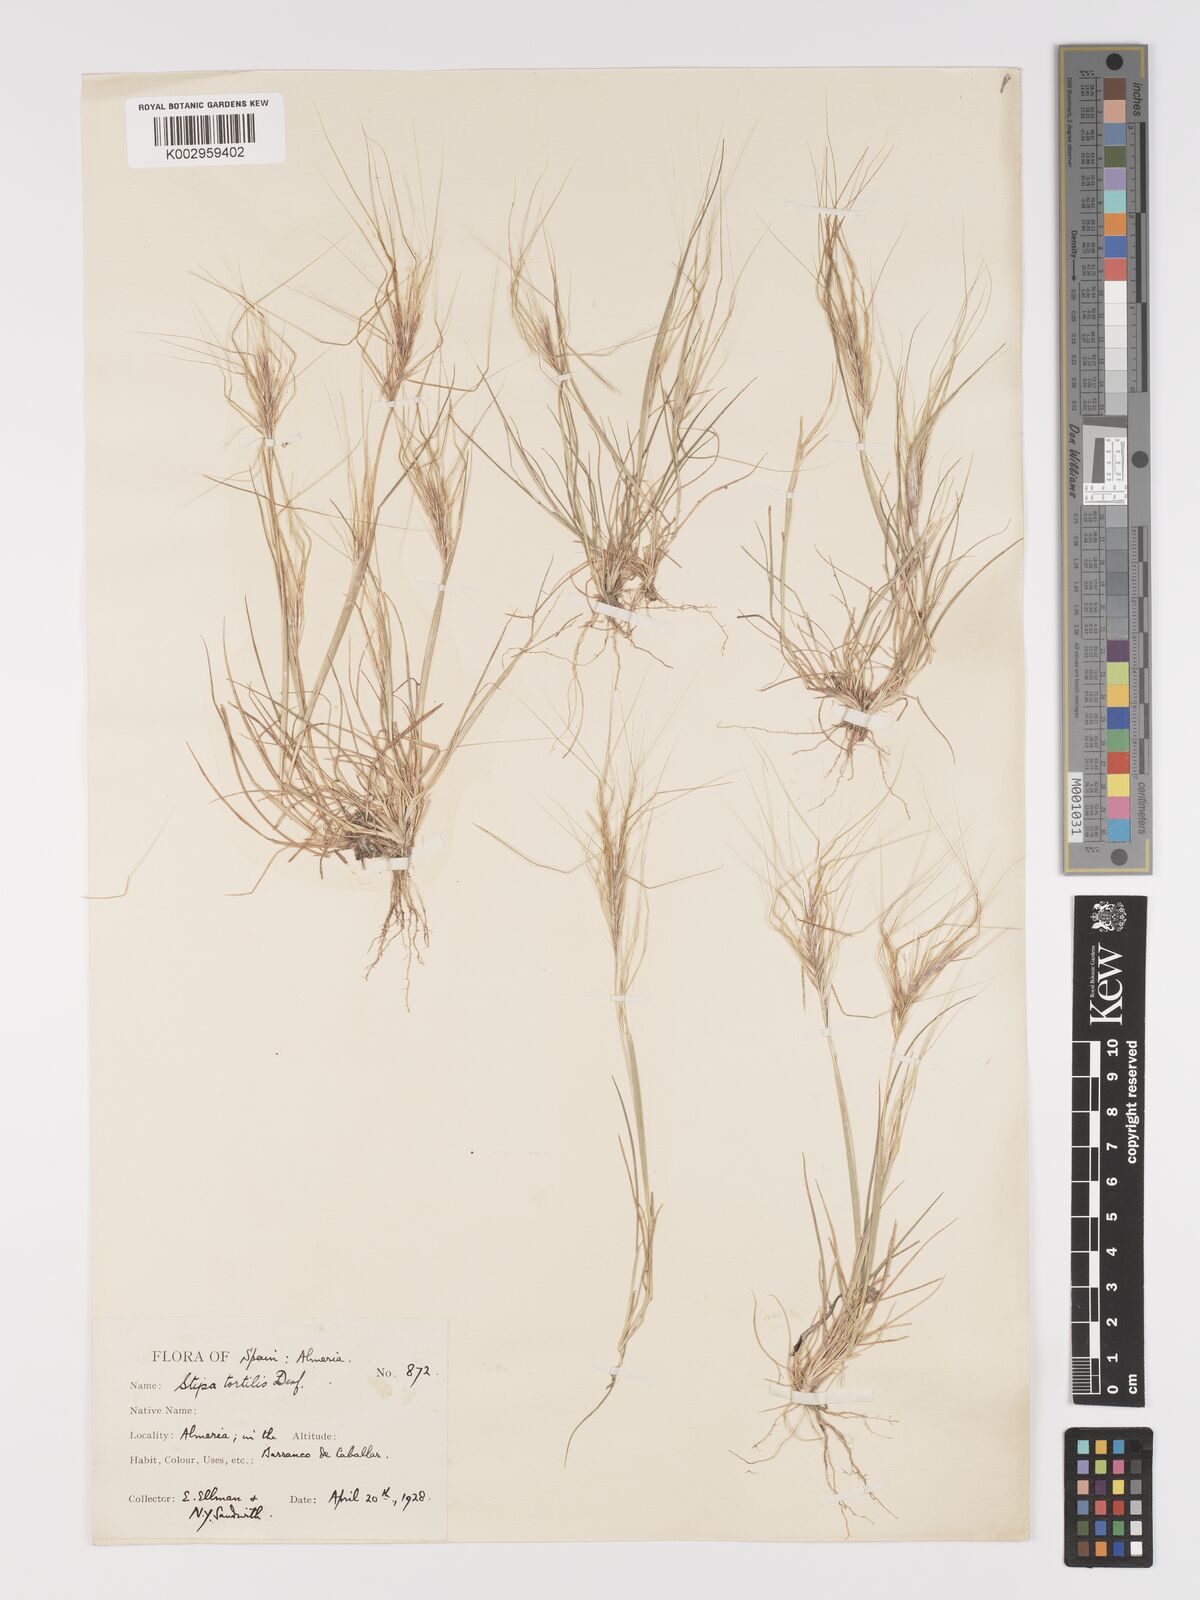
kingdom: Plantae
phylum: Tracheophyta
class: Liliopsida
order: Poales
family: Poaceae
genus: Stipellula
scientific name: Stipellula capensis
